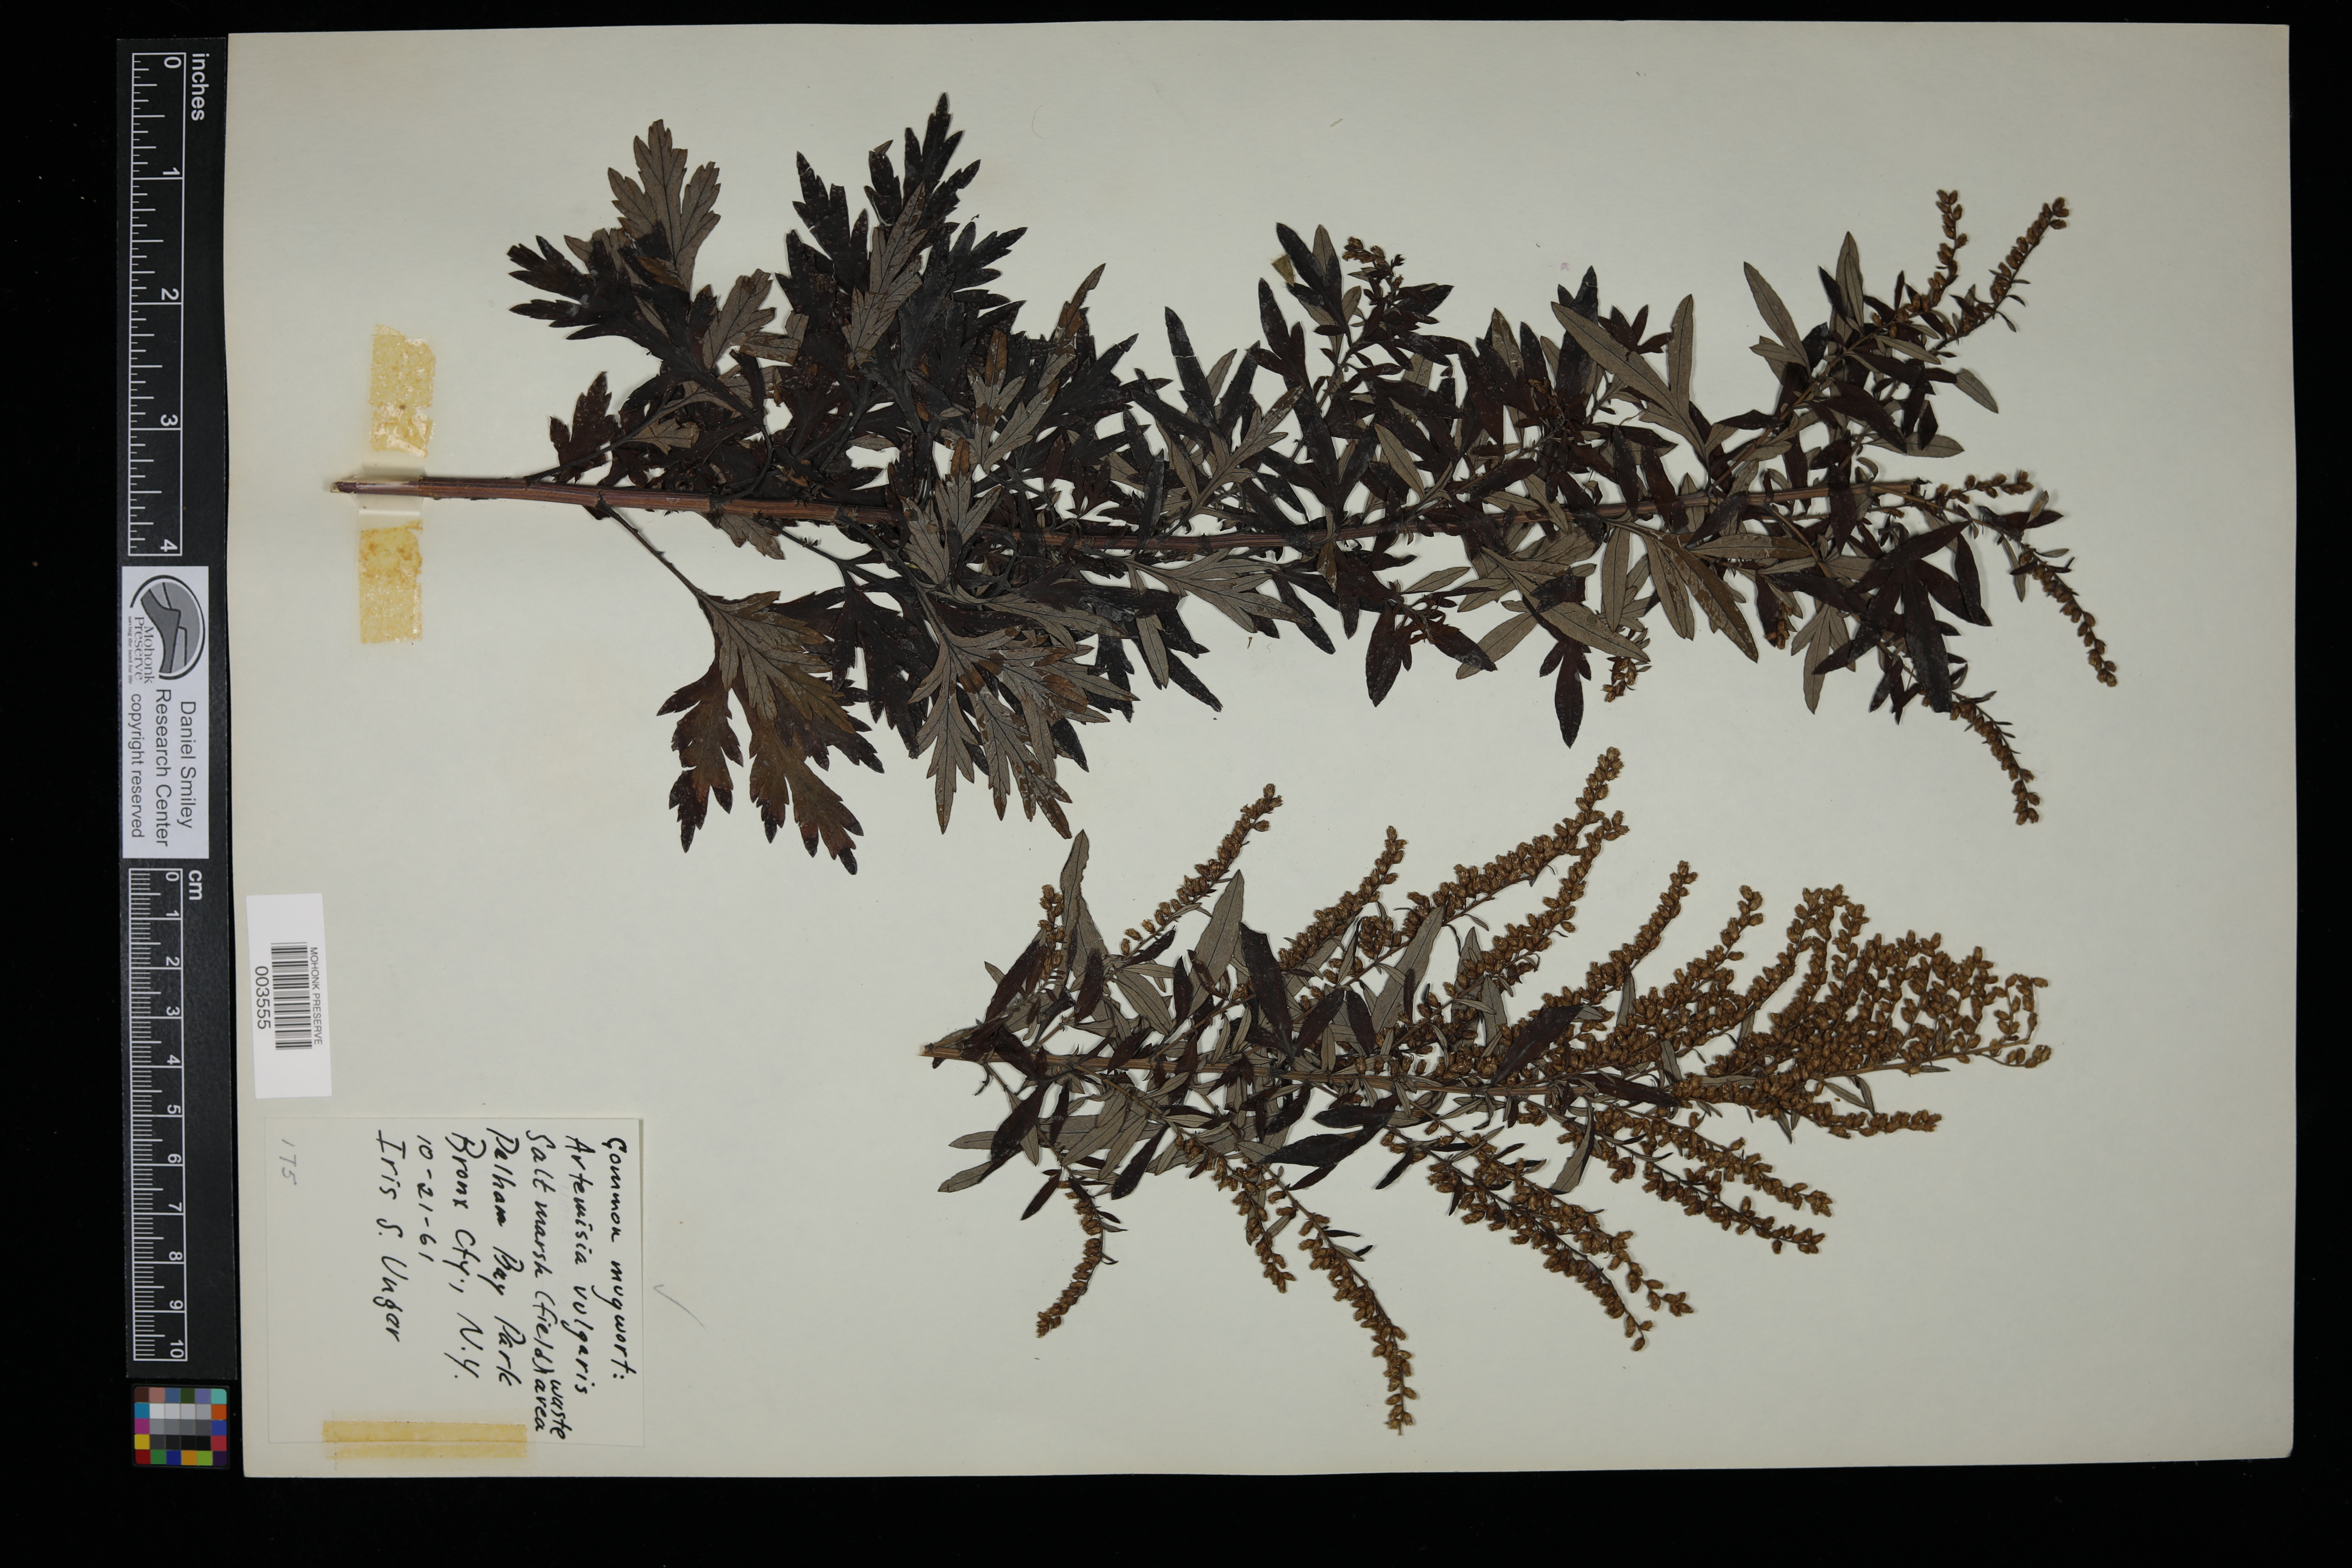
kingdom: Plantae
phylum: Tracheophyta
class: Magnoliopsida
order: Asterales
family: Asteraceae
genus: Artemisia
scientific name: Artemisia vulgaris
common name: Mugwort
